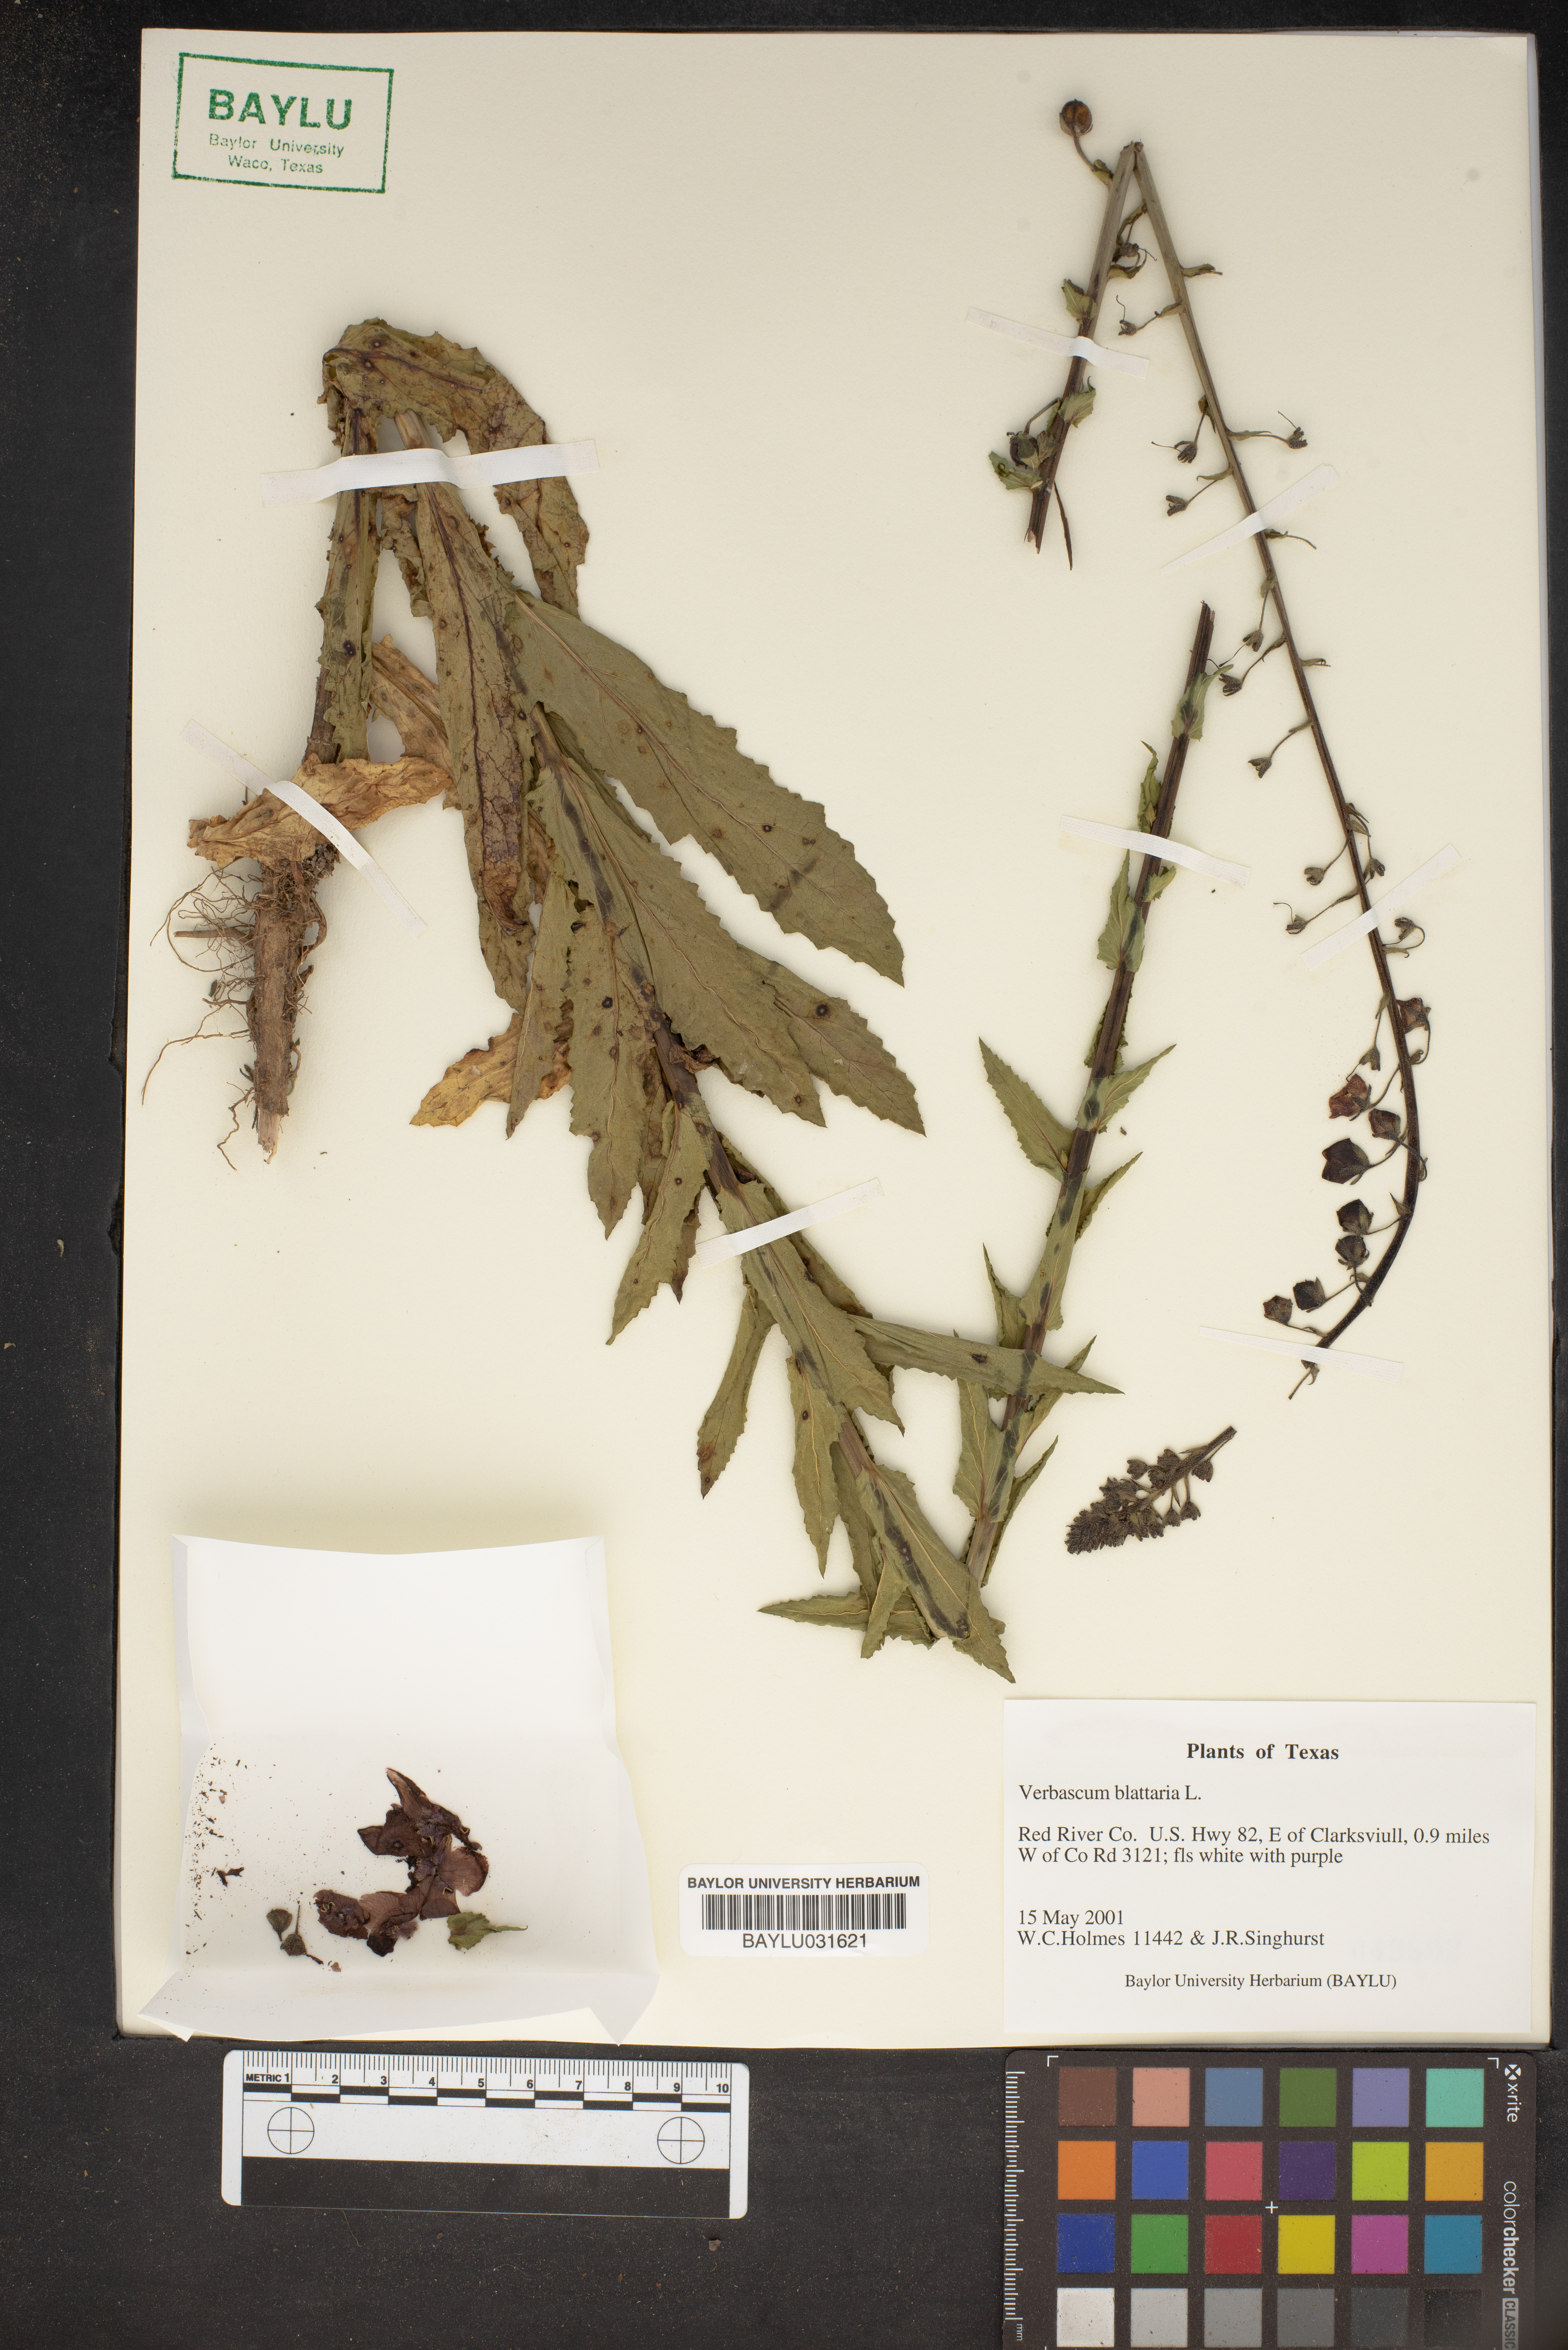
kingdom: Plantae
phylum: Tracheophyta
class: Magnoliopsida
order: Lamiales
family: Scrophulariaceae
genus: Verbascum
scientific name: Verbascum blattaria
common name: Moth mullein
